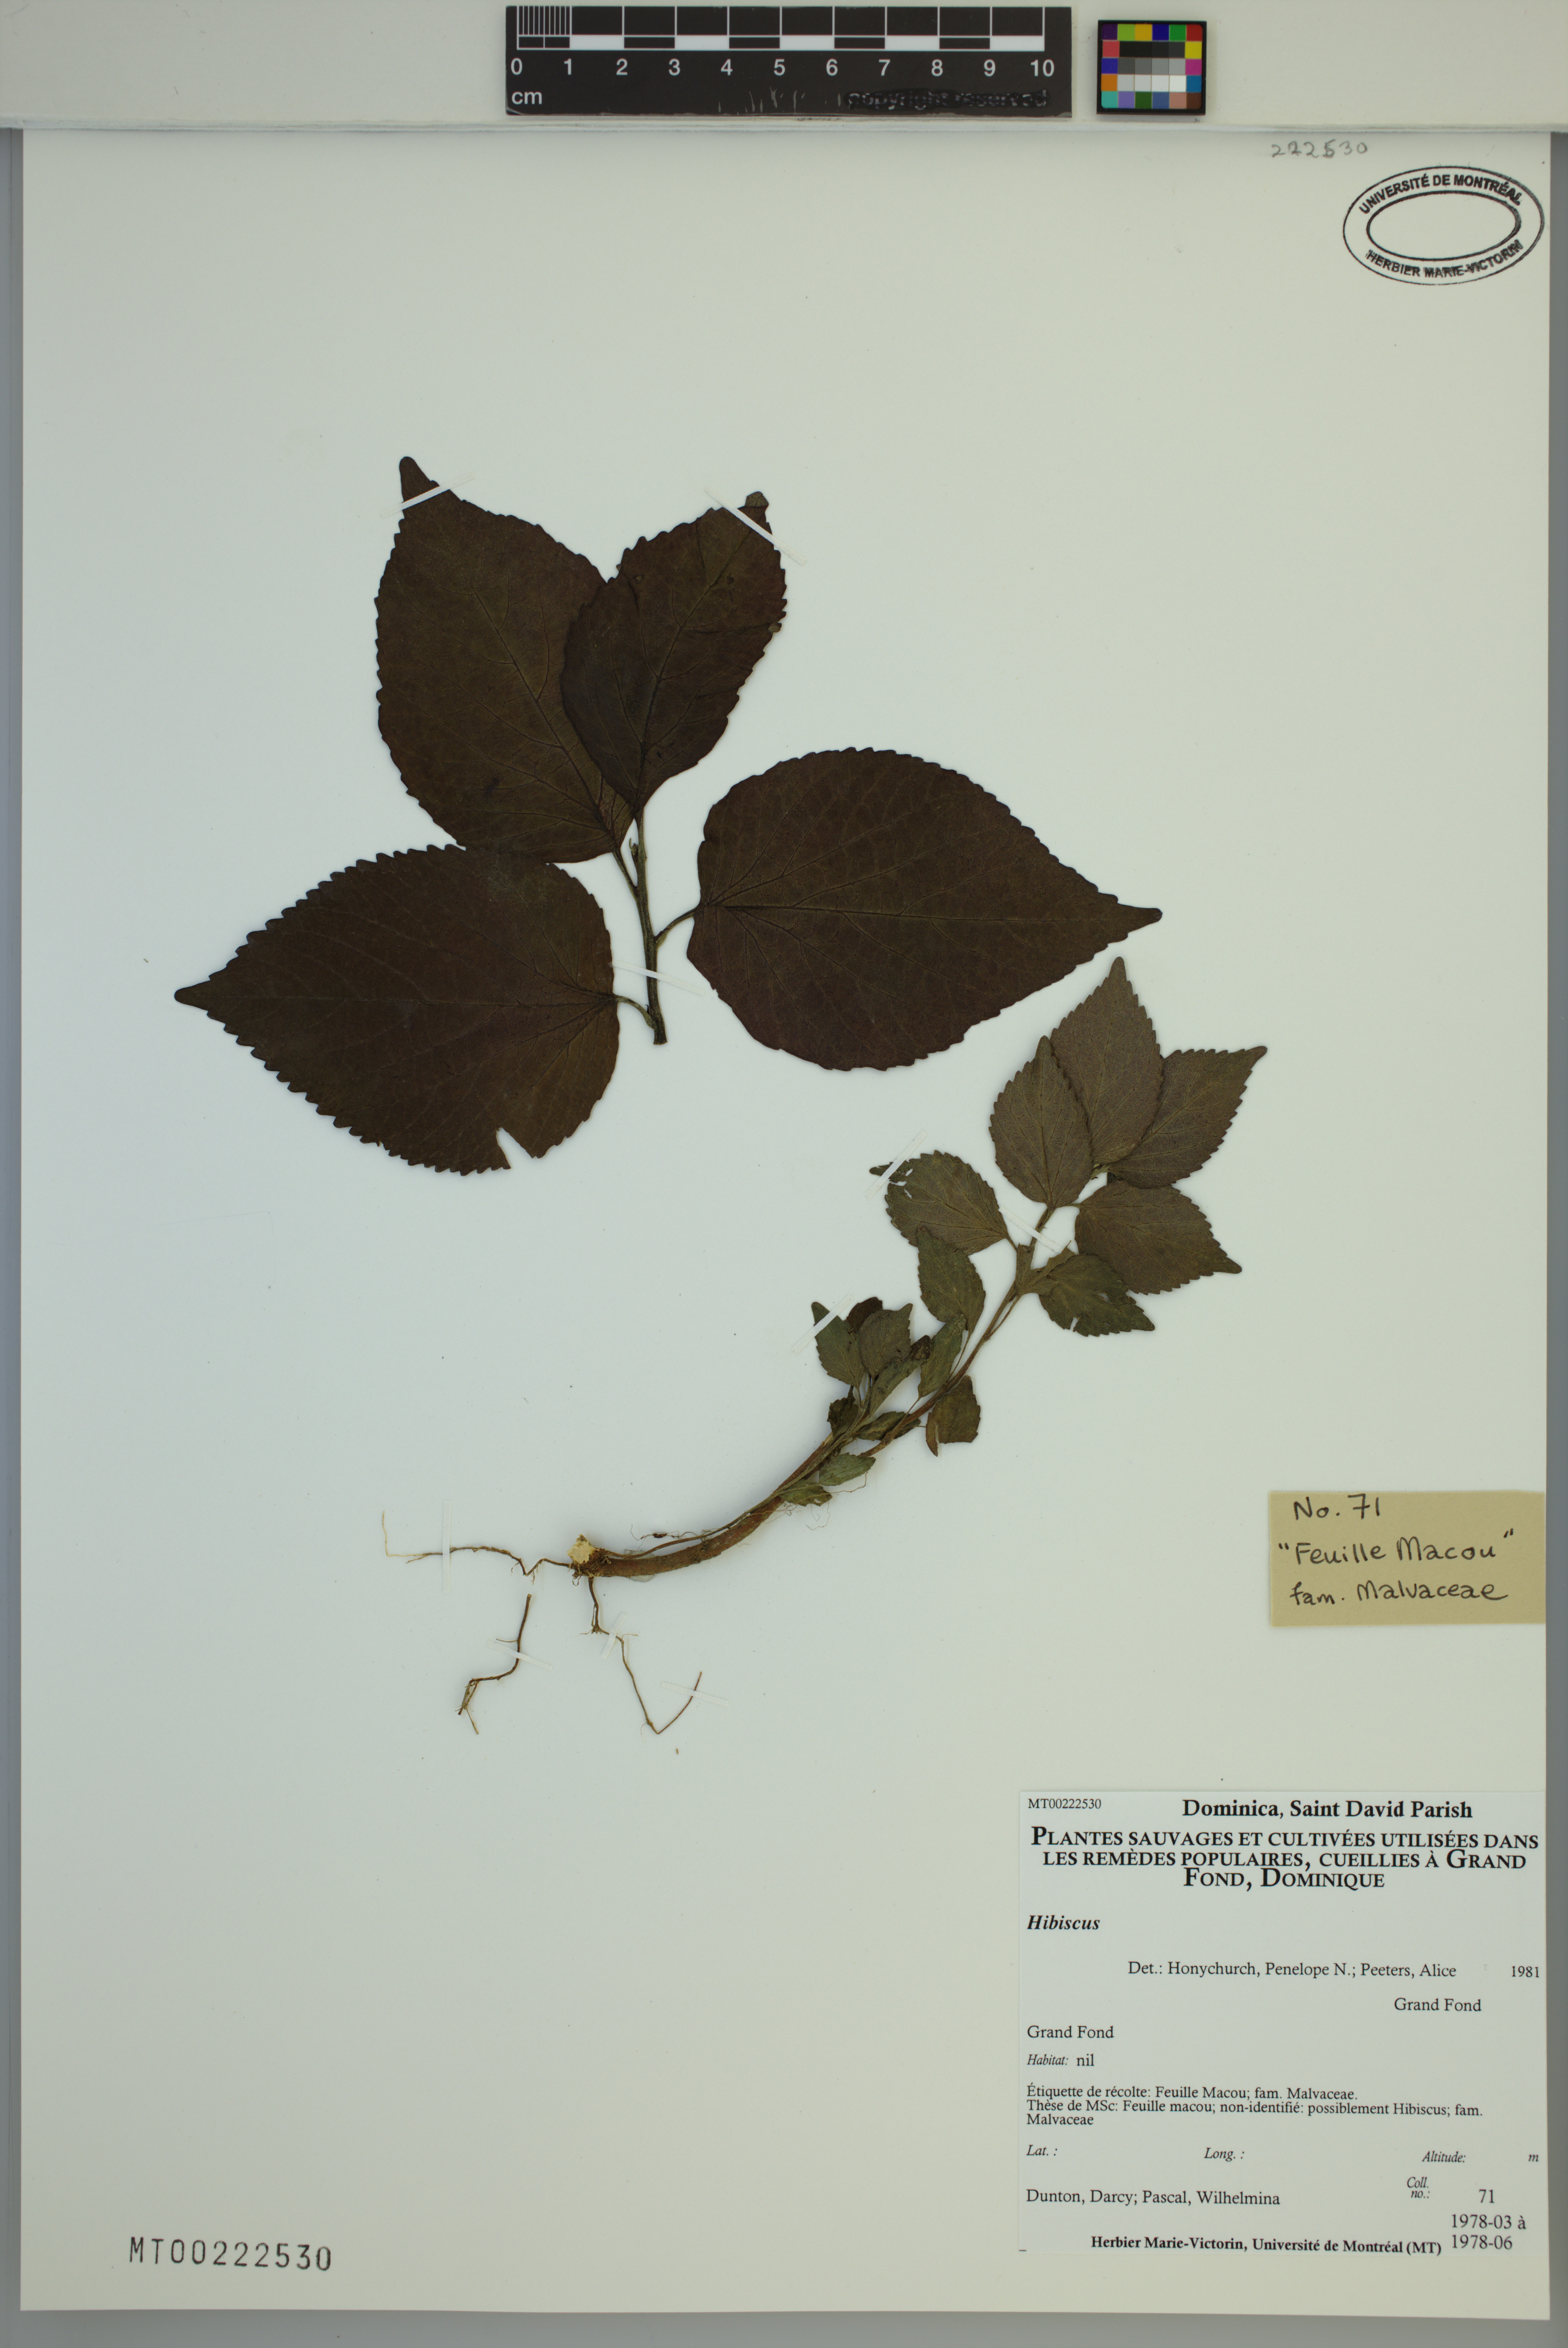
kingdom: Plantae
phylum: Tracheophyta
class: Magnoliopsida
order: Malvales
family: Malvaceae
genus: Hibiscus
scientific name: Hibiscus
